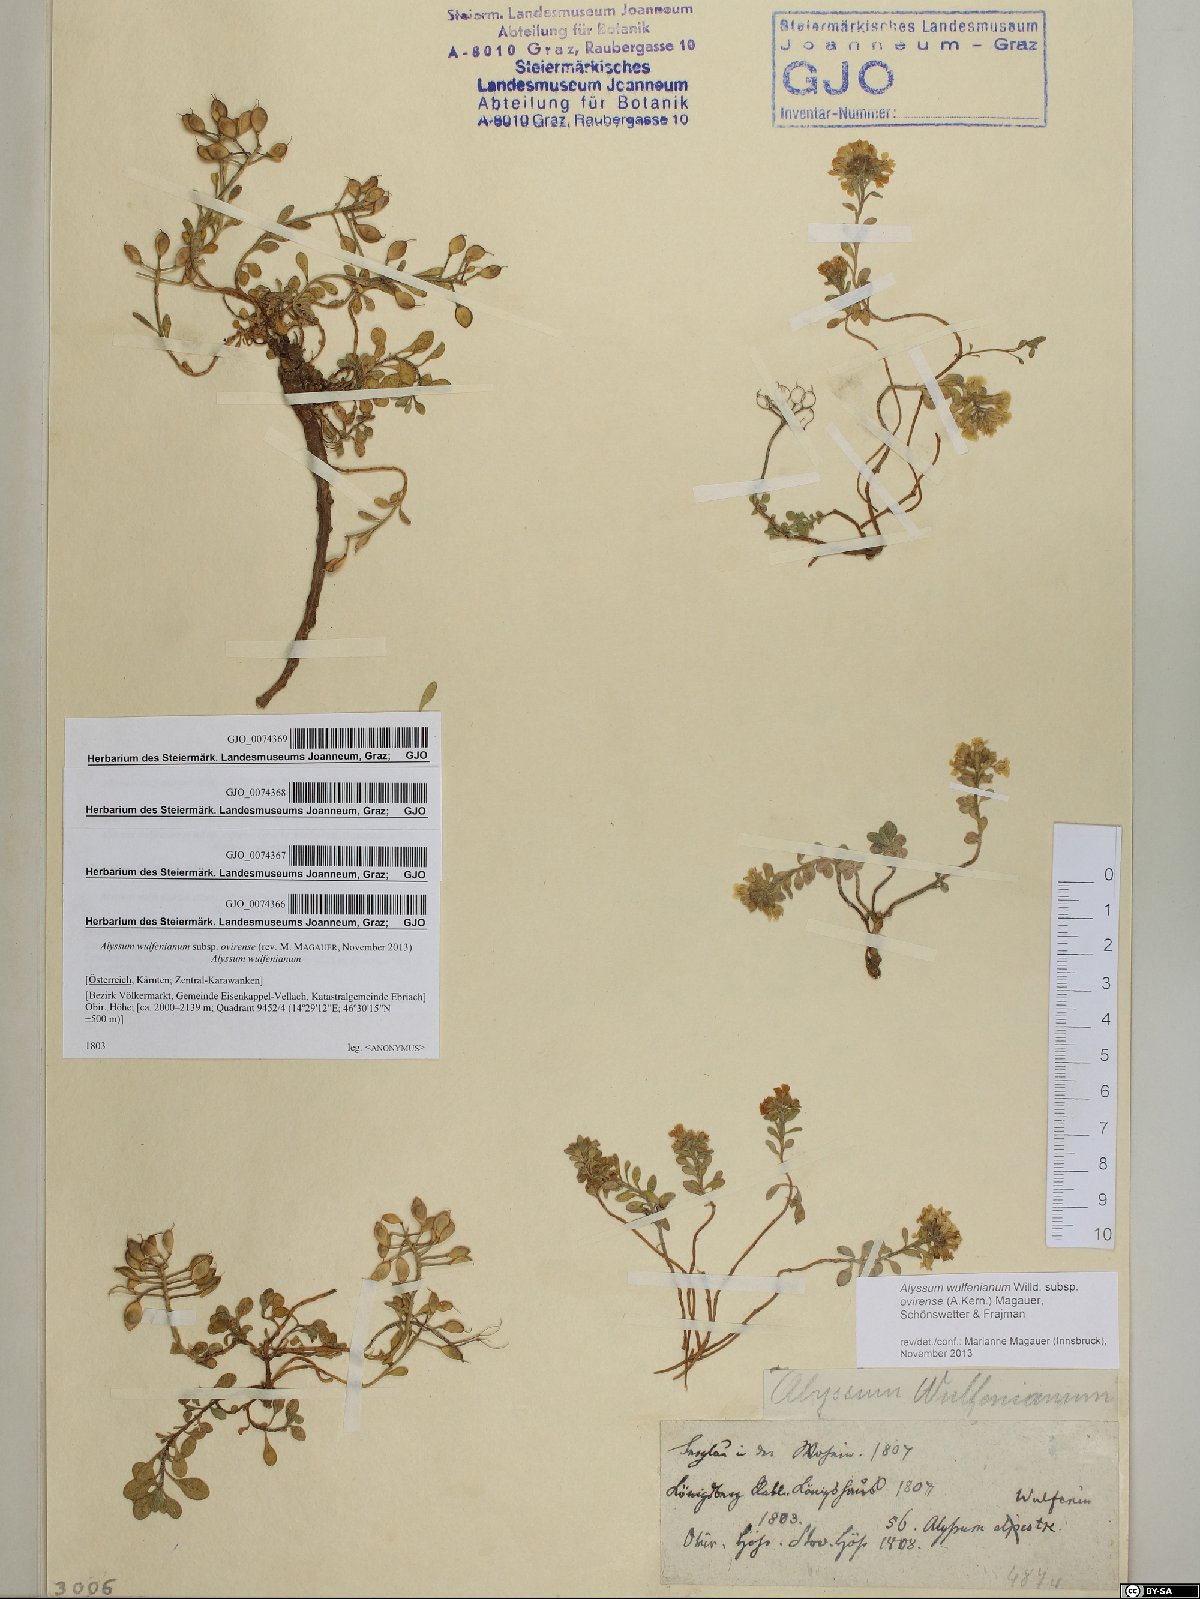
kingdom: Plantae
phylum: Tracheophyta
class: Magnoliopsida
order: Brassicales
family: Brassicaceae
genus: Alyssum
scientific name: Alyssum wulfenianum
